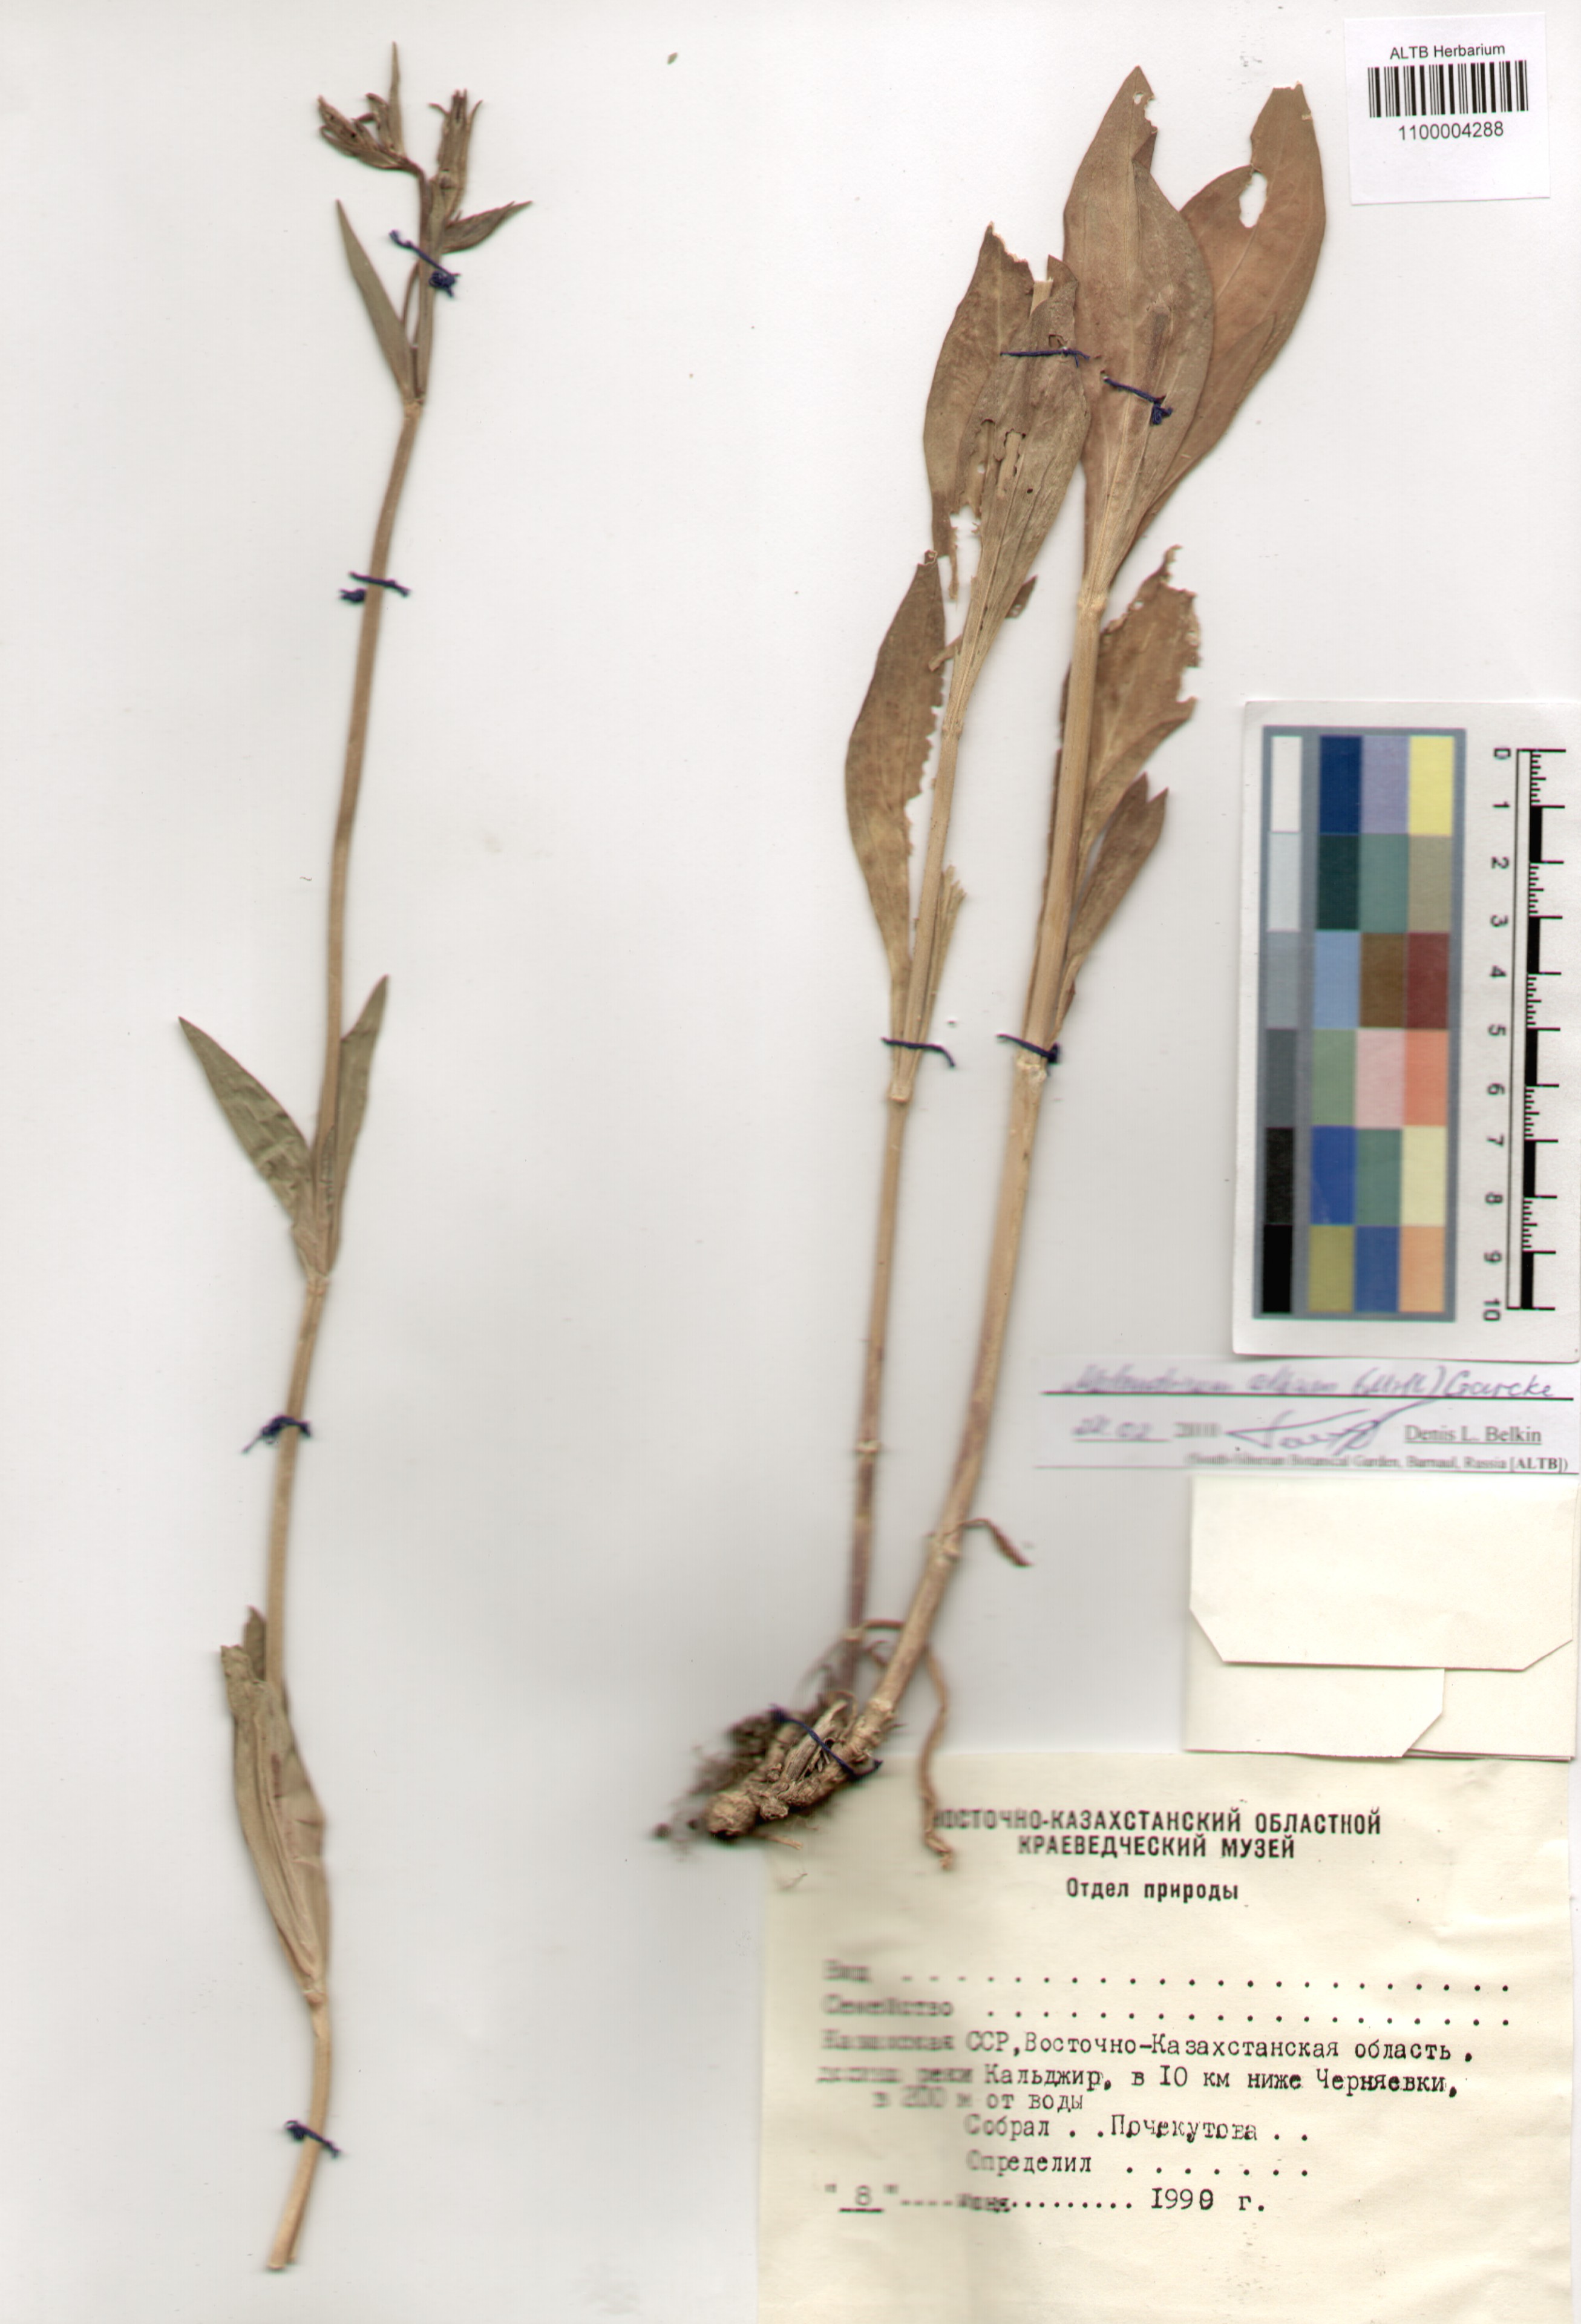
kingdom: Plantae
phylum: Tracheophyta
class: Magnoliopsida
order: Caryophyllales
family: Caryophyllaceae
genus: Silene
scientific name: Silene latifolia
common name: White campion
